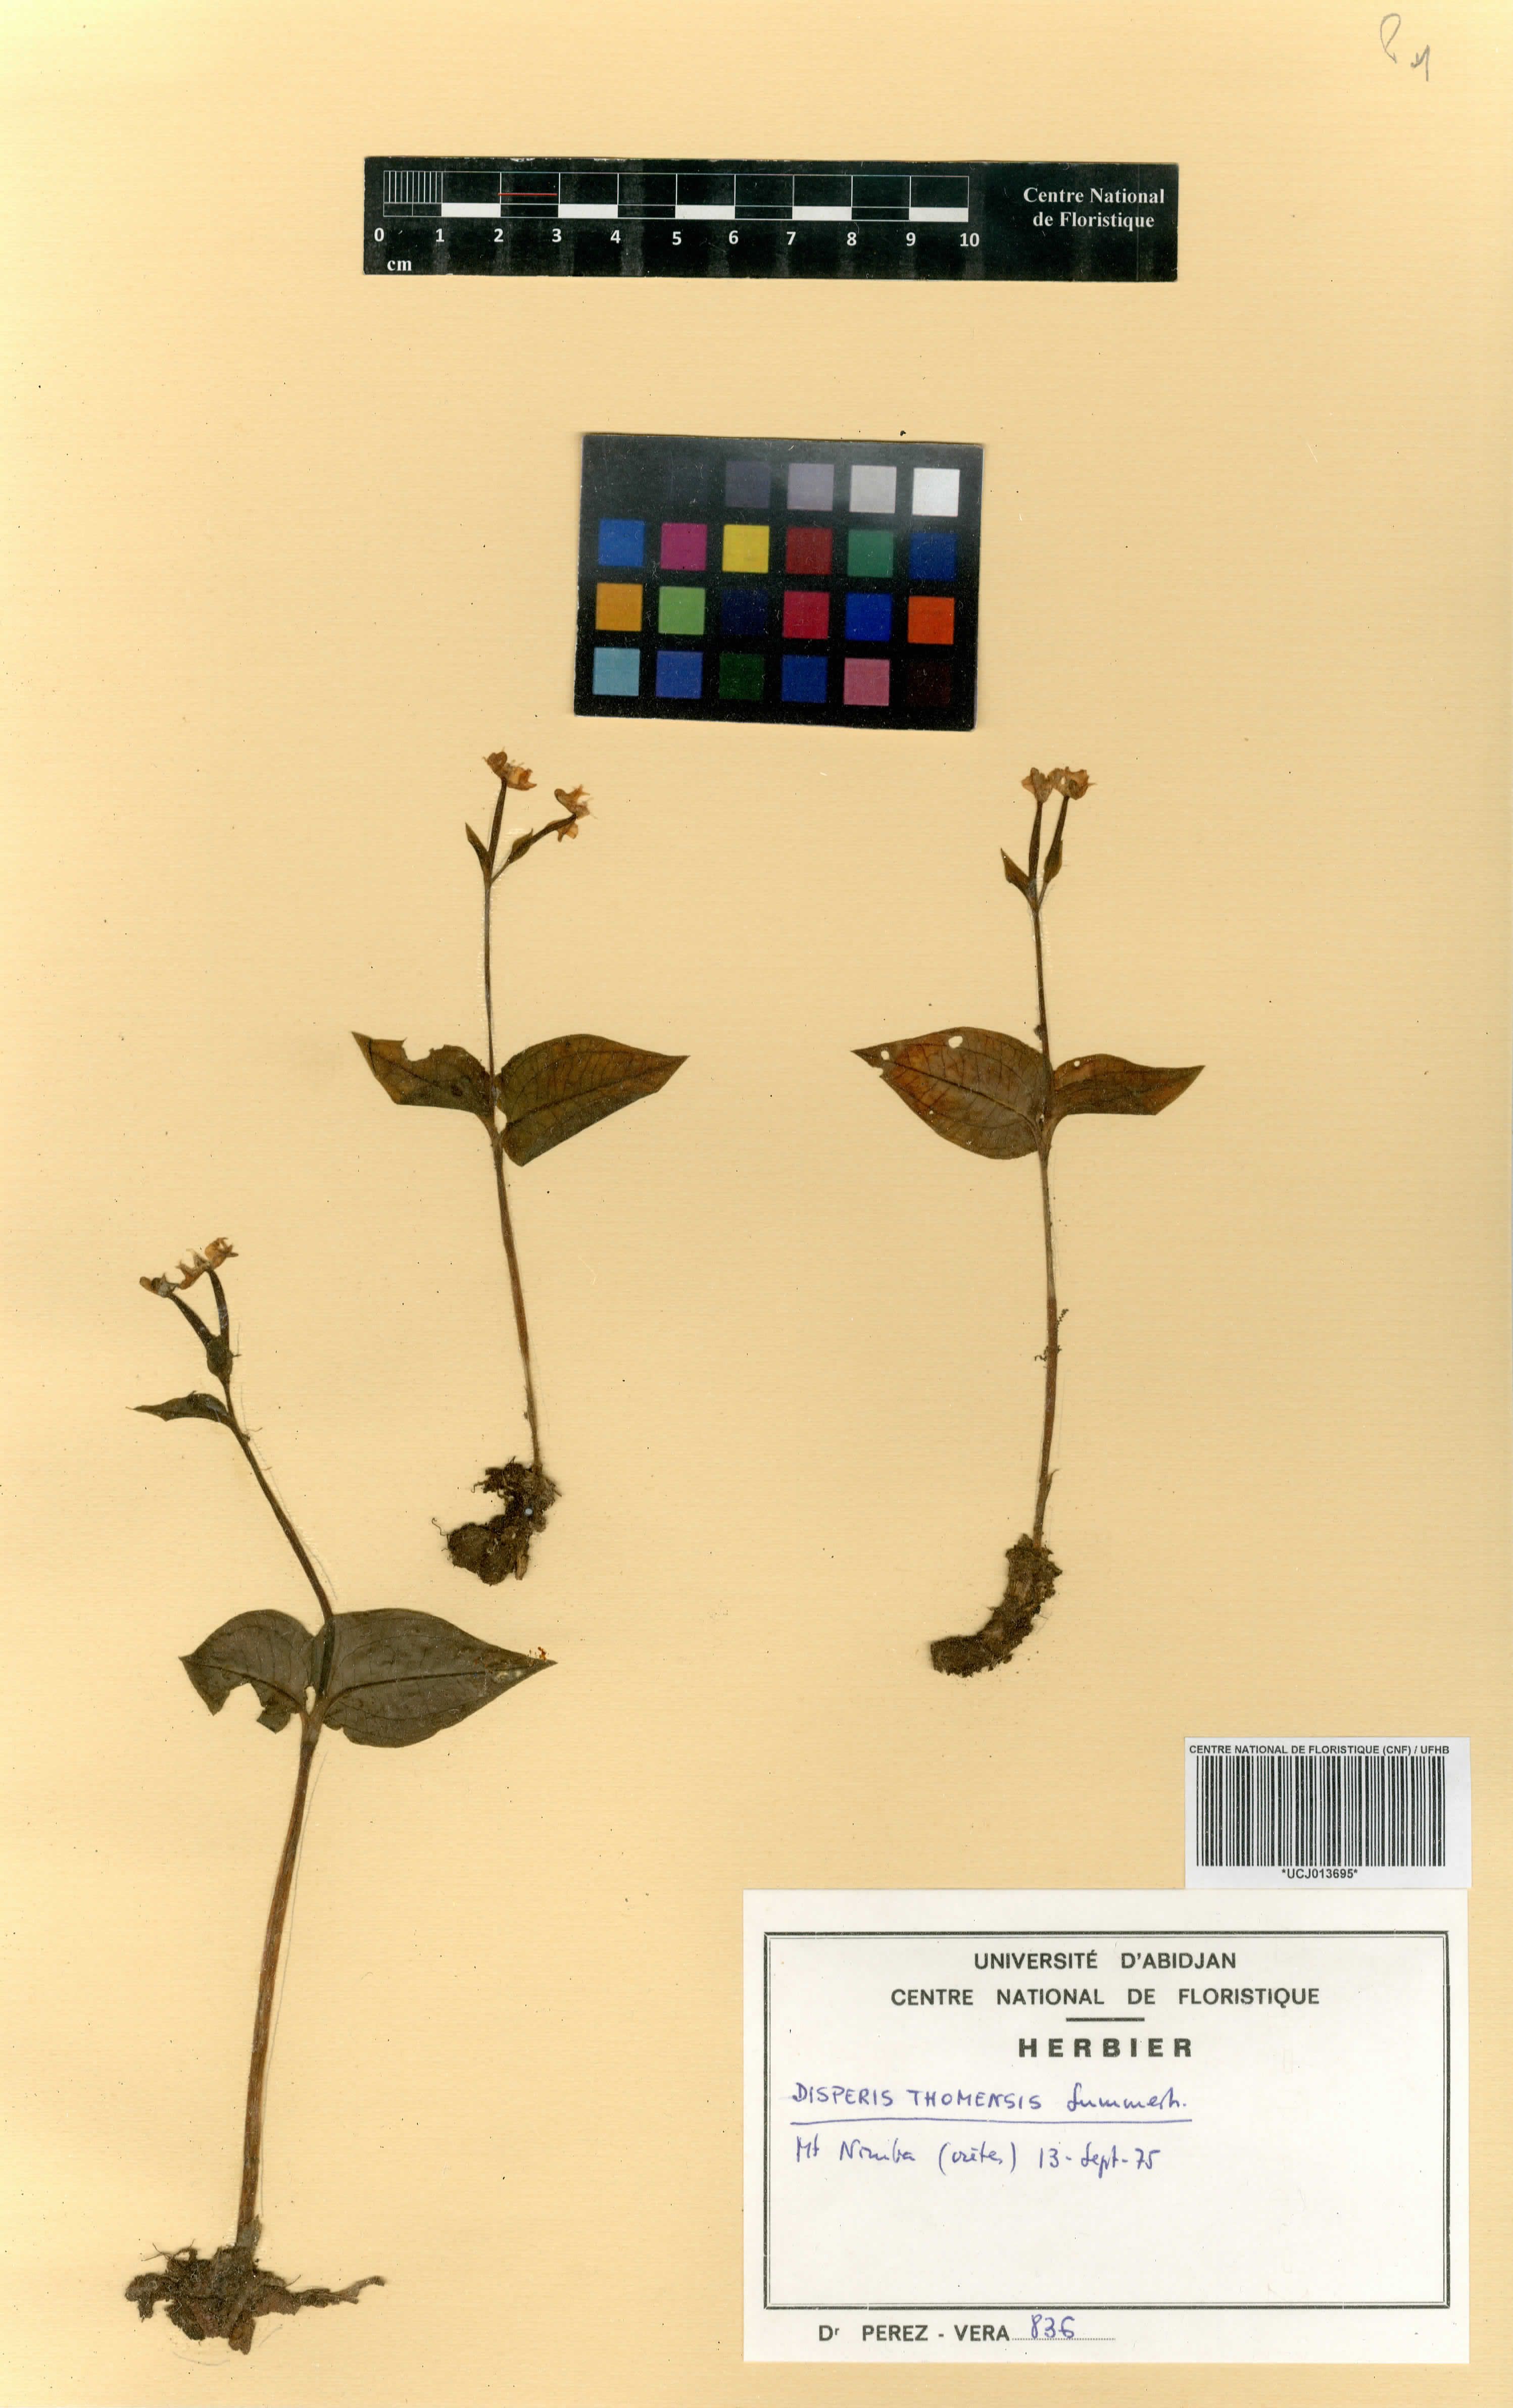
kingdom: Plantae
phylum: Tracheophyta
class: Liliopsida
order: Asparagales
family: Orchidaceae
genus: Disperis
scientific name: Disperis thomensis
